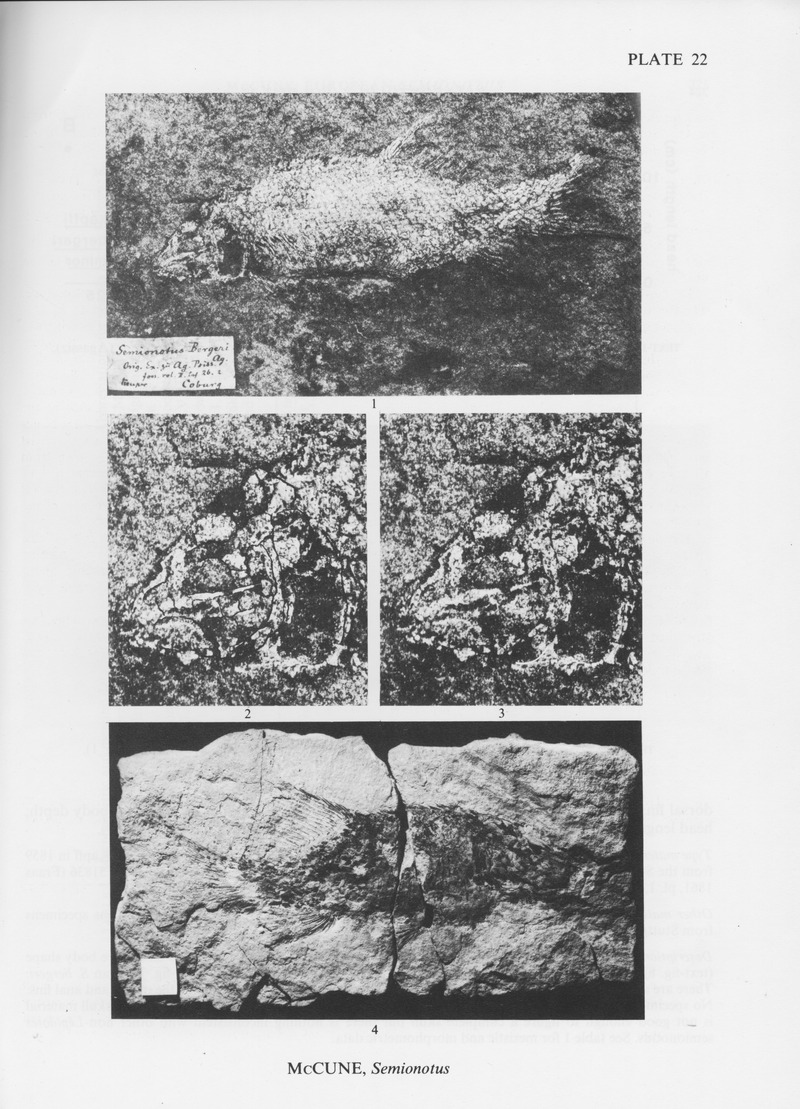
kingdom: Animalia
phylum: Chordata
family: Semionotidae
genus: Semionotus
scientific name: Semionotus bergeri
